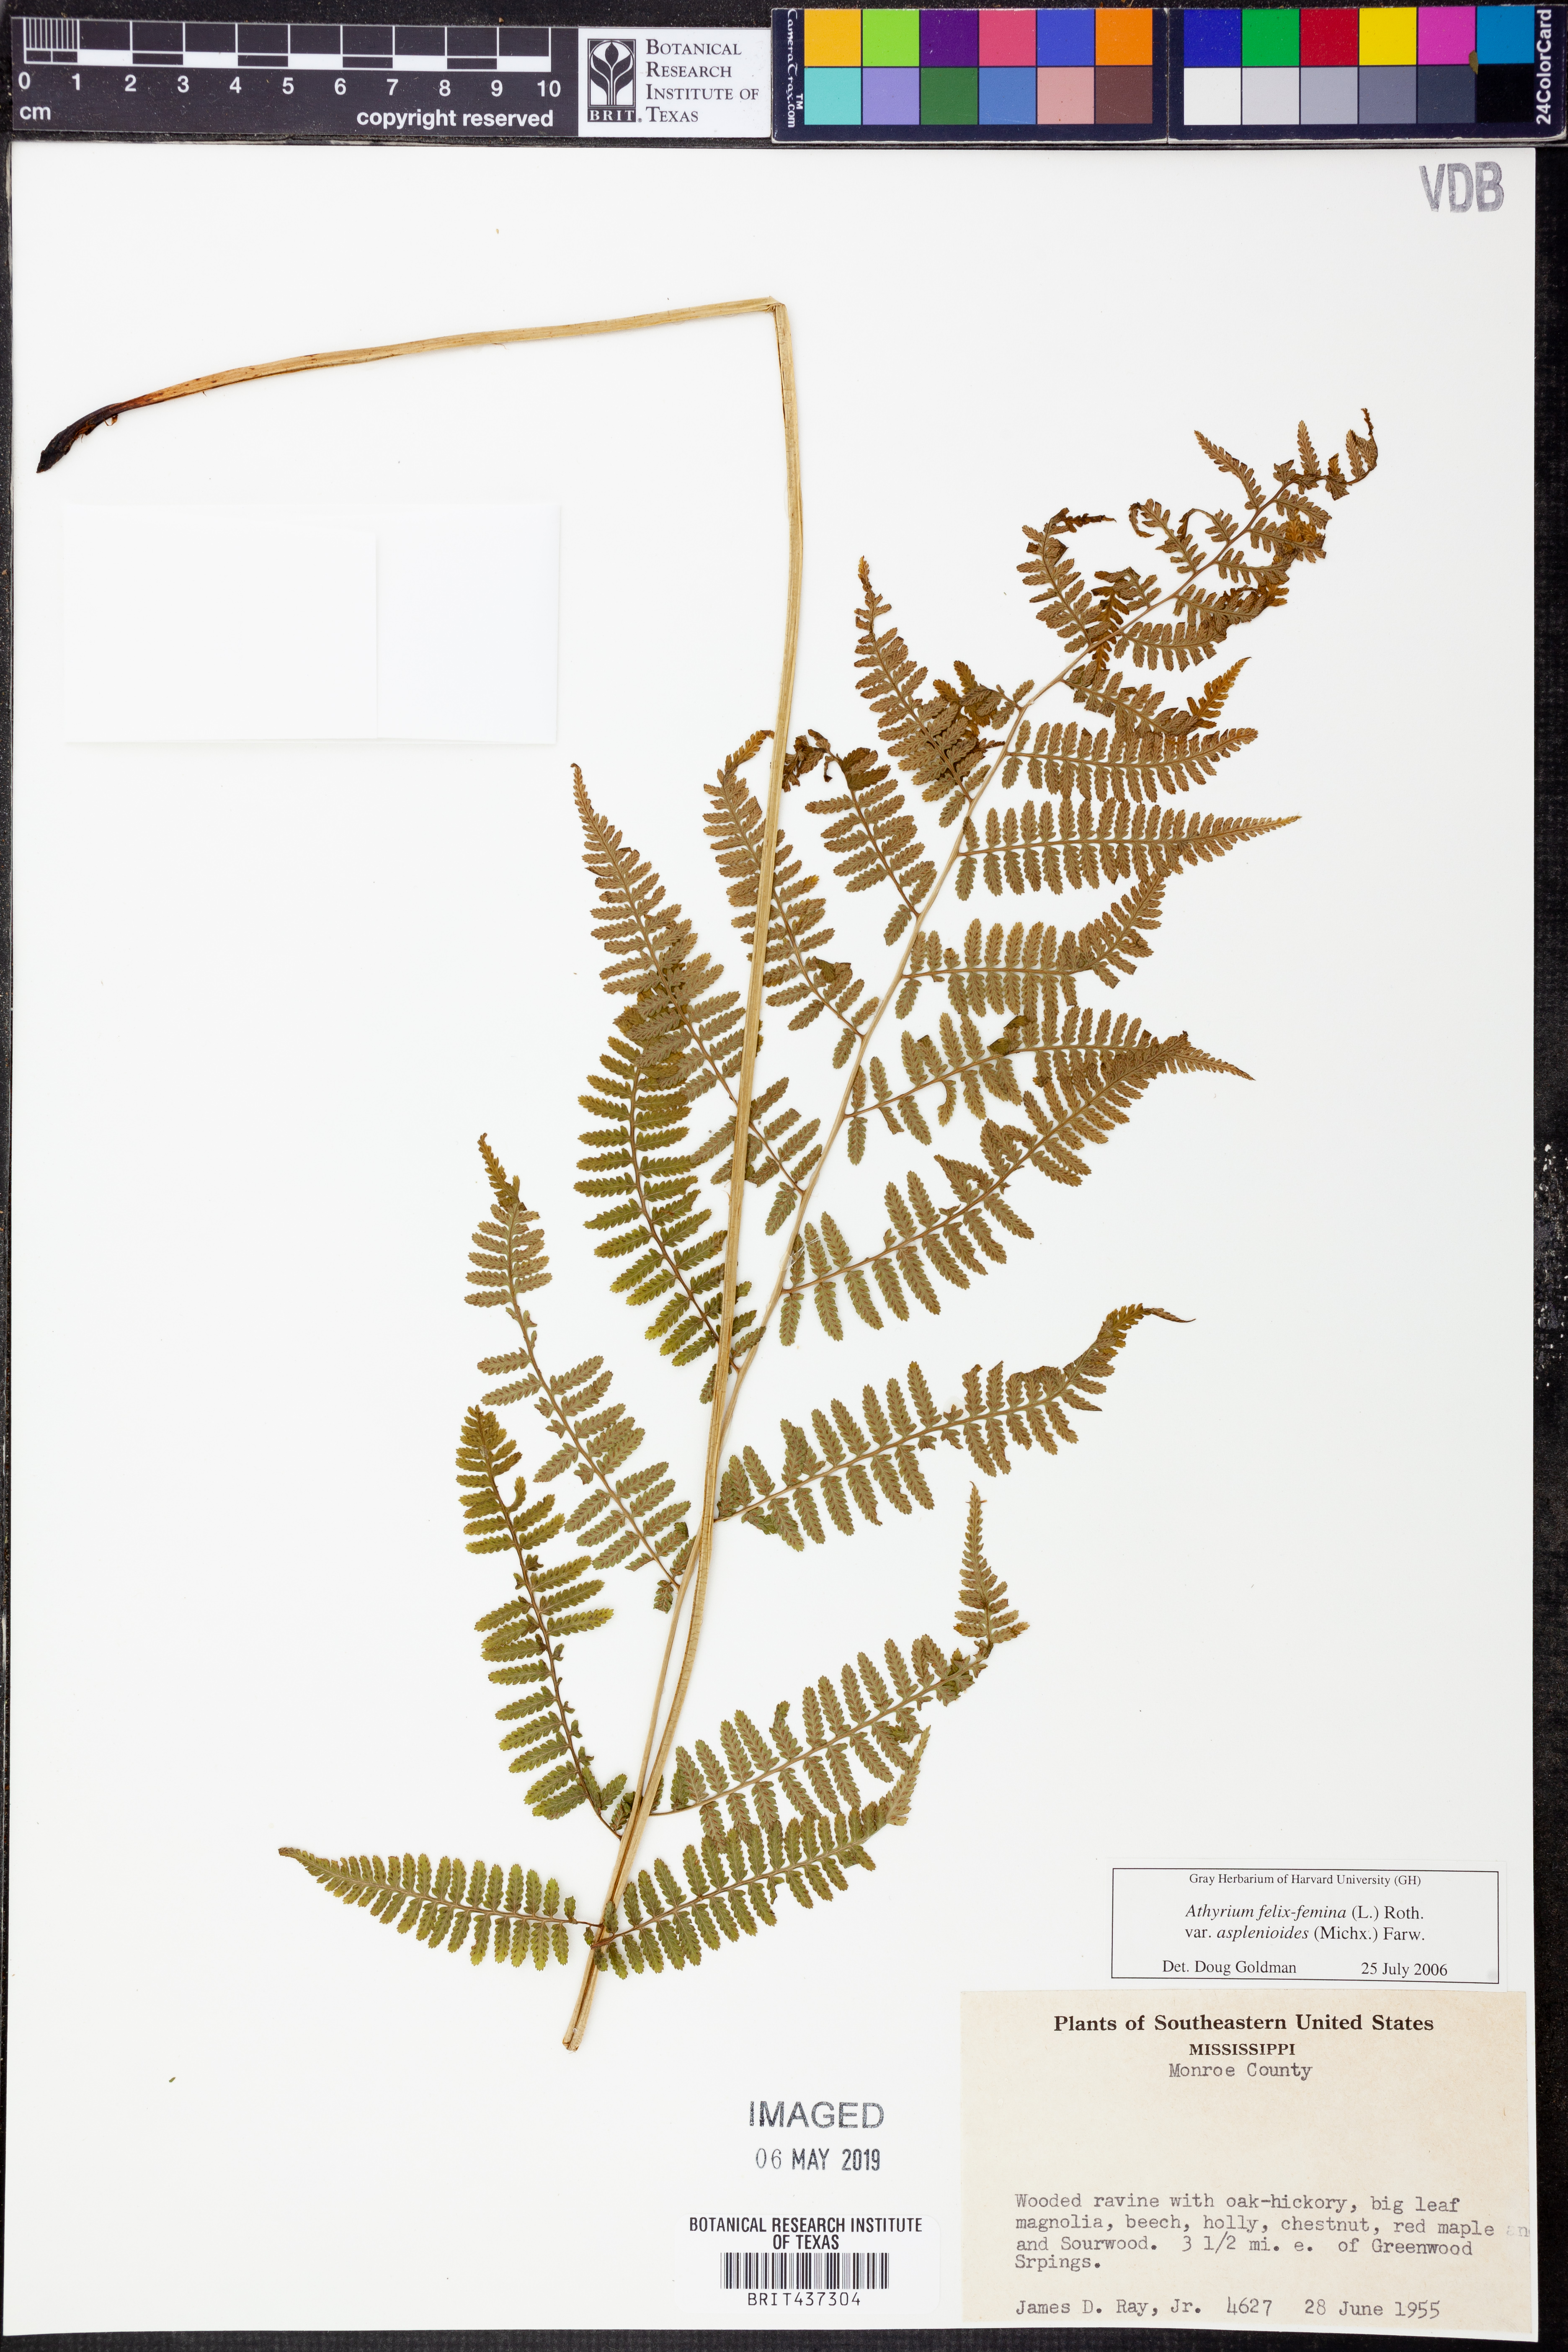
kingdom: Plantae
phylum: Tracheophyta
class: Polypodiopsida
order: Polypodiales
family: Athyriaceae
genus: Athyrium
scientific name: Athyrium asplenioides
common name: Southern lady fern
